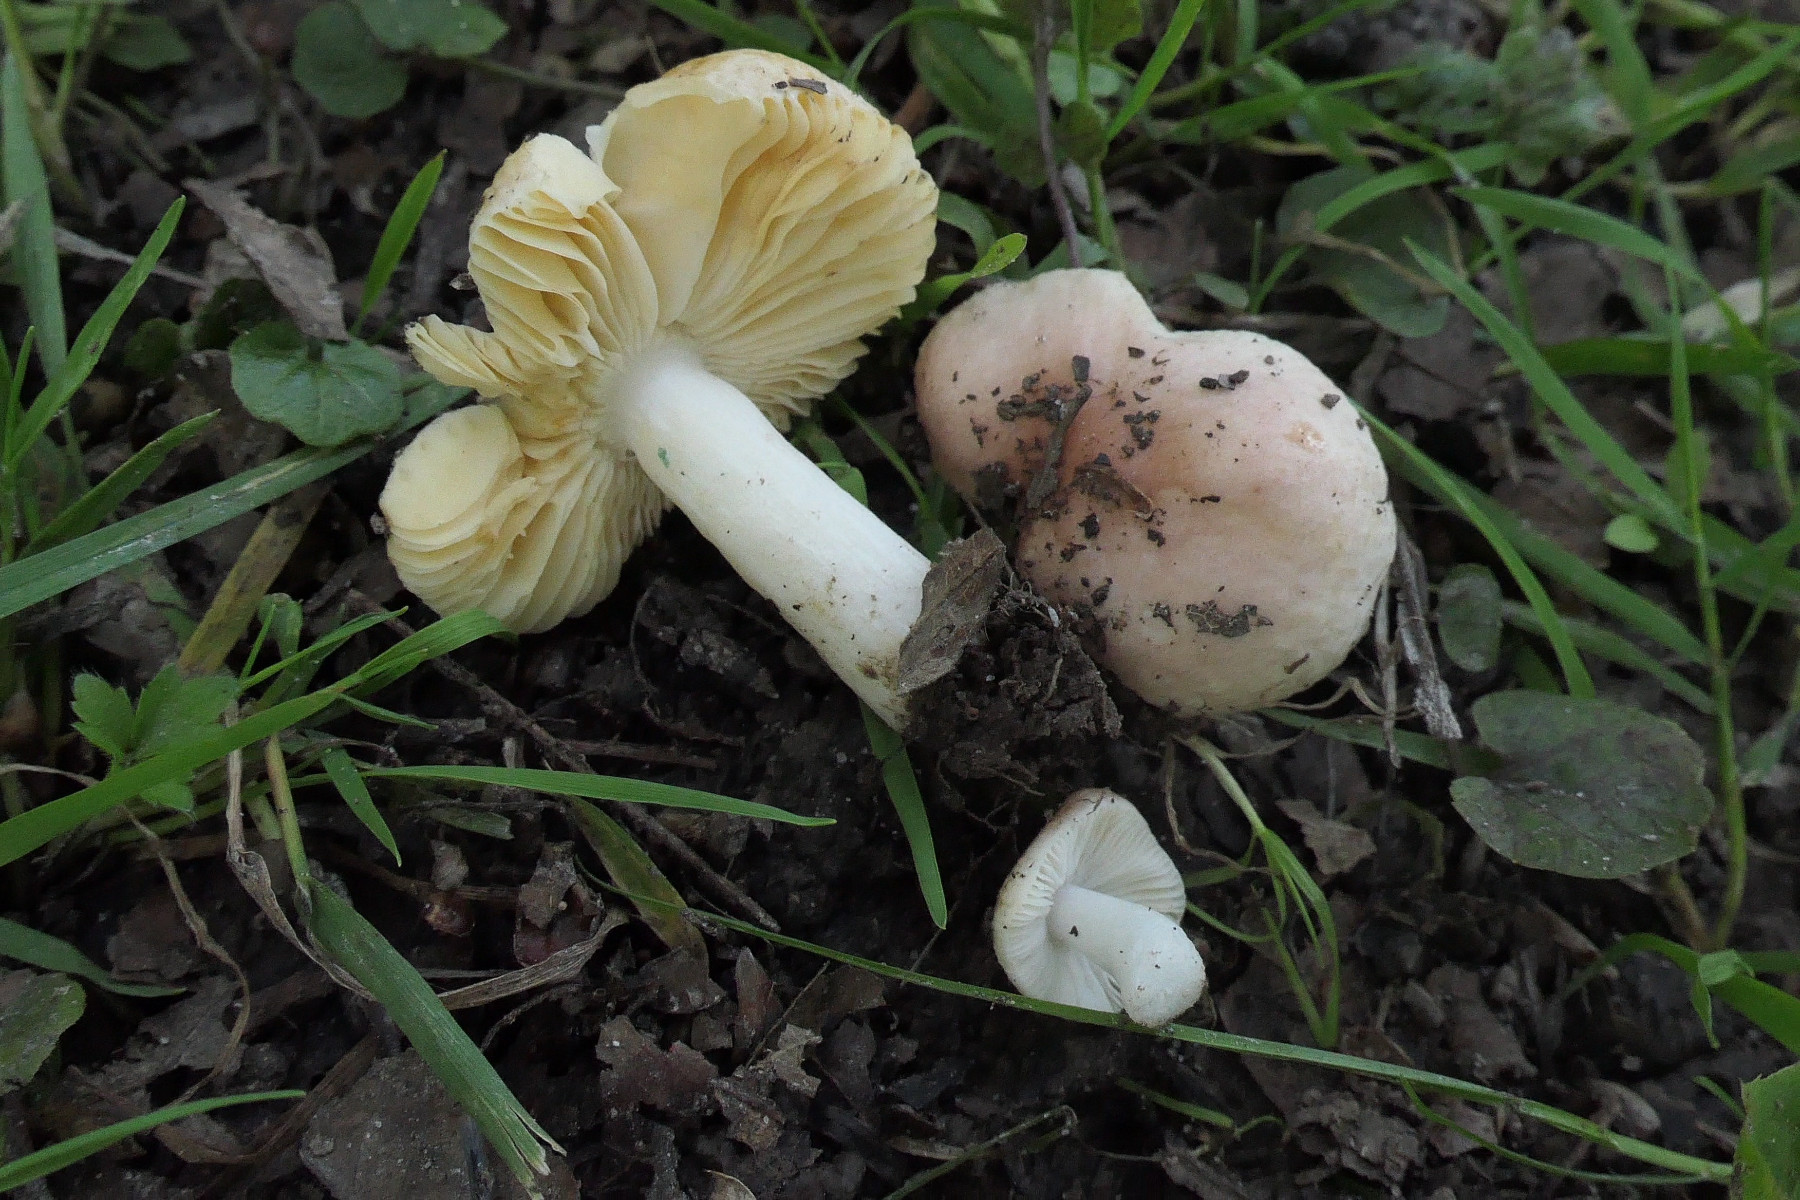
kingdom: Fungi
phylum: Basidiomycota
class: Agaricomycetes
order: Russulales
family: Russulaceae
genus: Russula
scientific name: Russula odorata
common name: duft-skørhat
